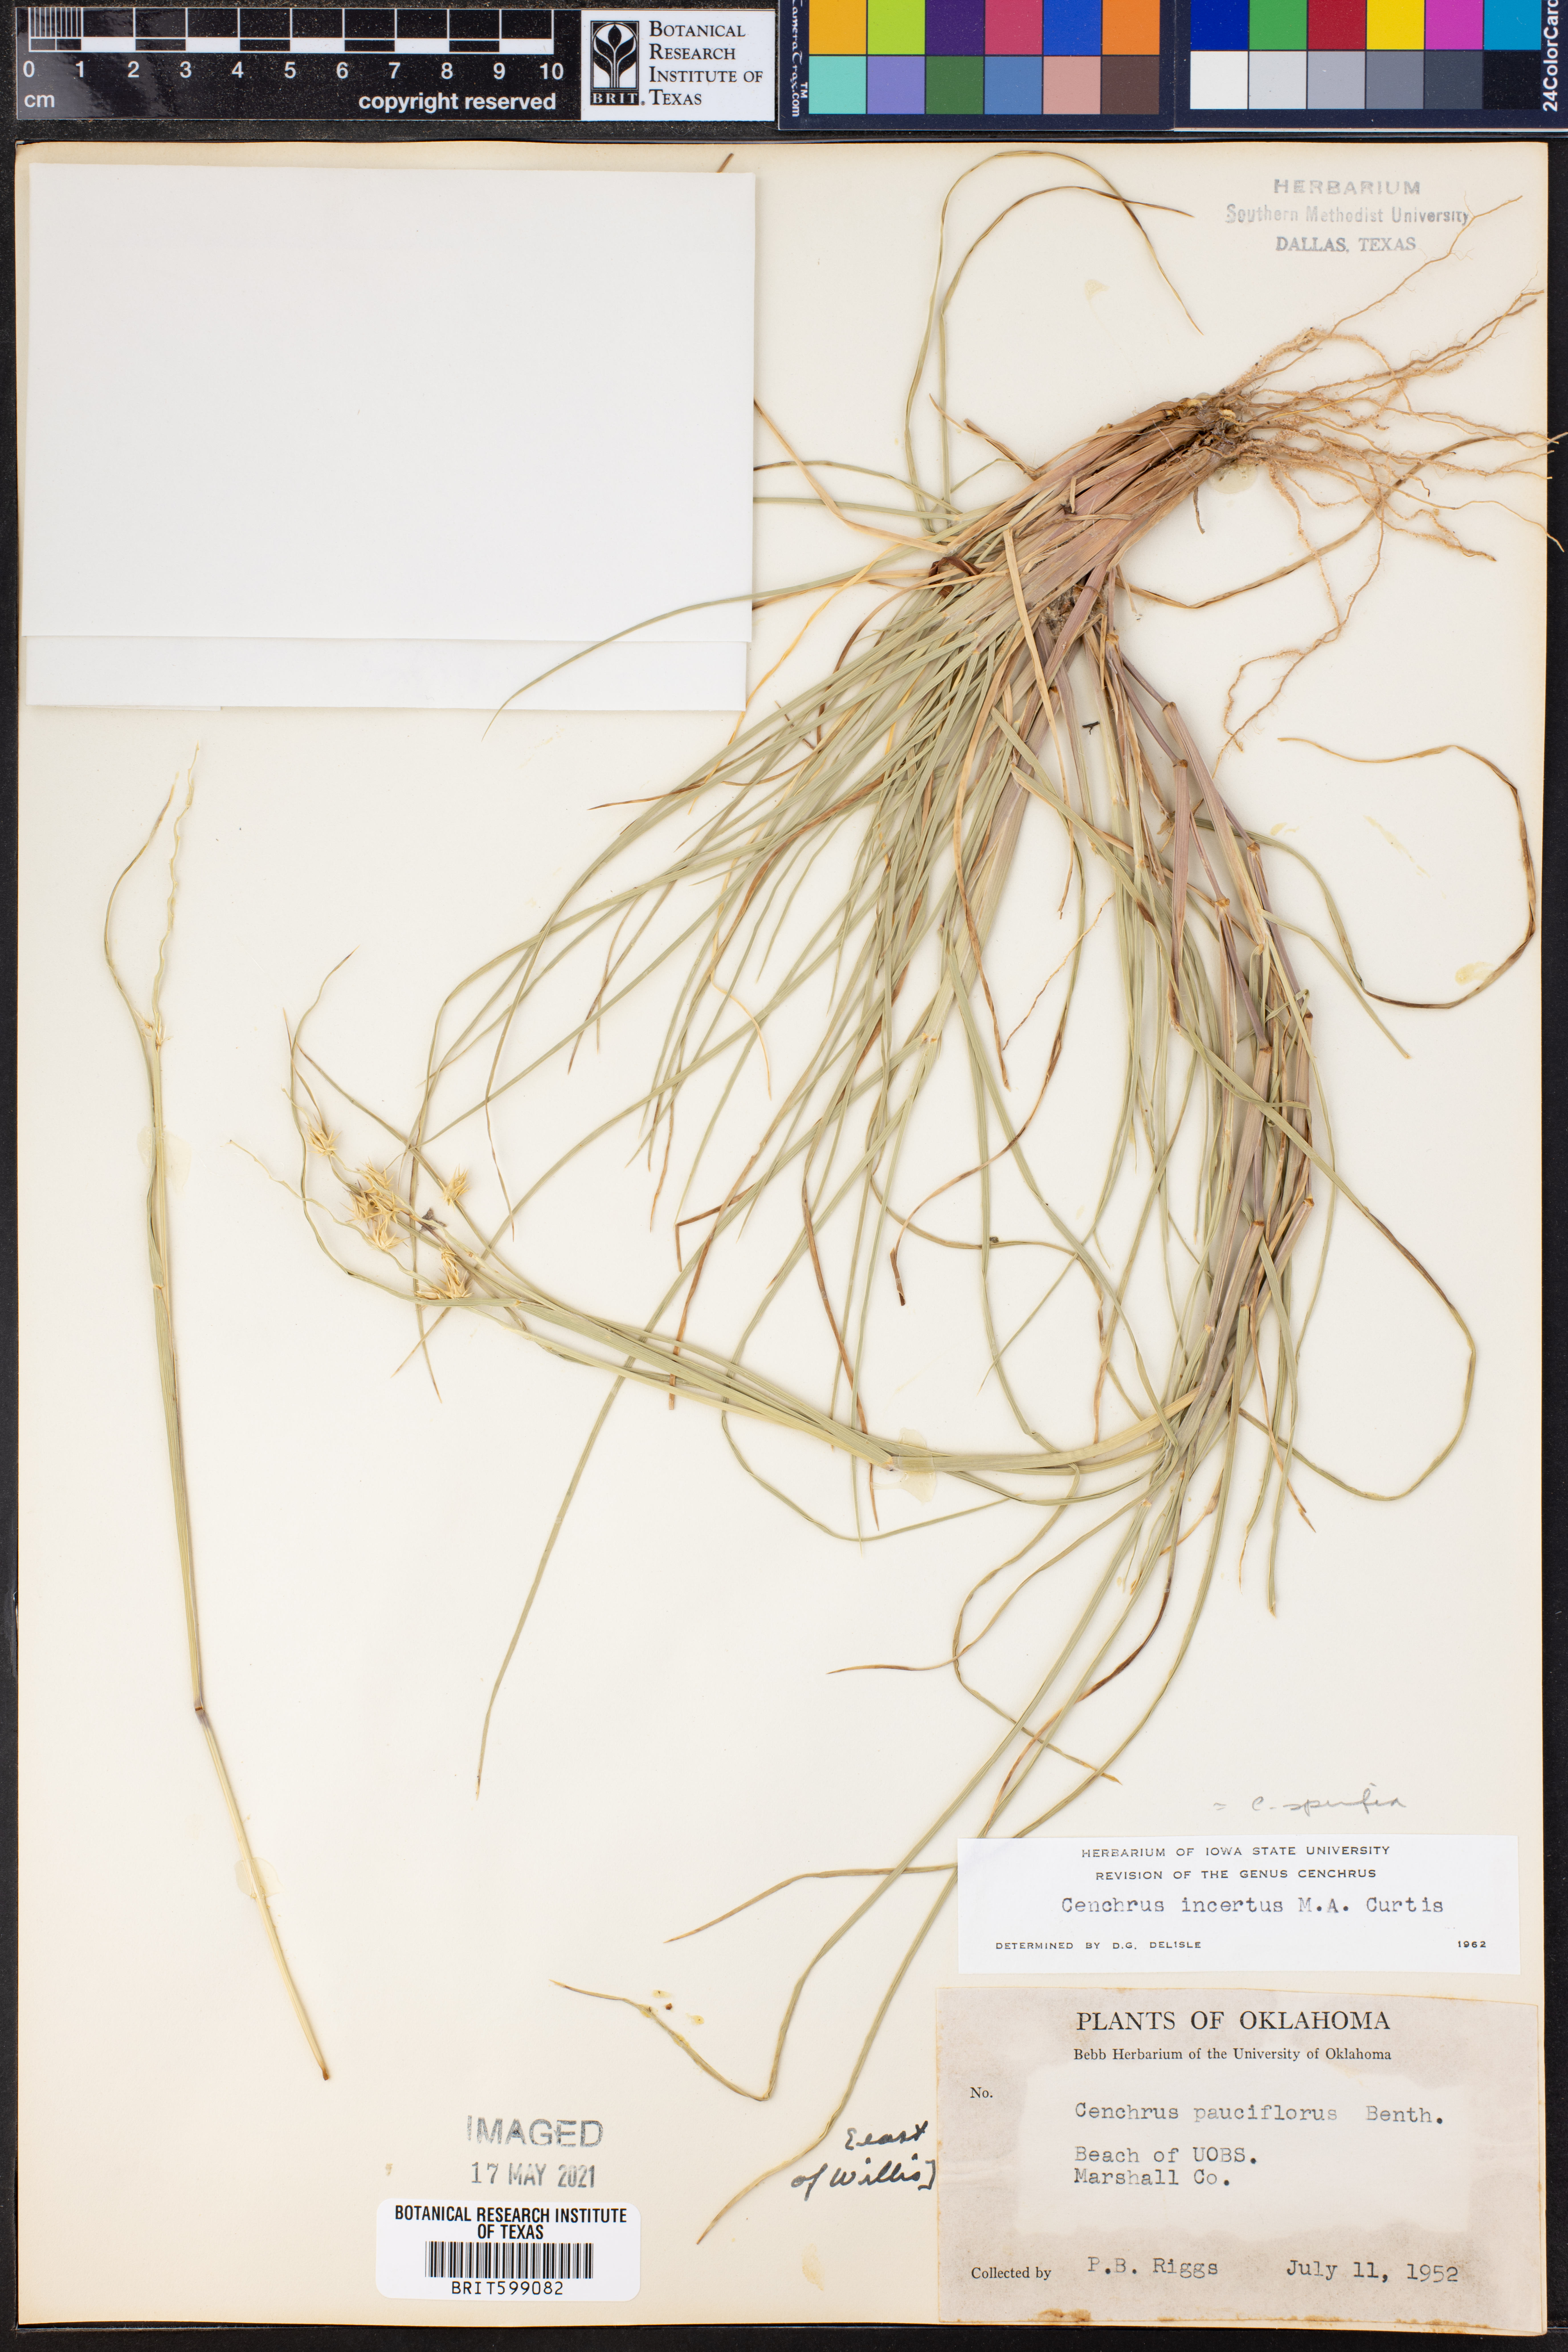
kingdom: Plantae
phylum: Tracheophyta
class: Liliopsida
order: Poales
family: Poaceae
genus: Cenchrus
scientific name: Cenchrus spinifex
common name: Coast sandbur
